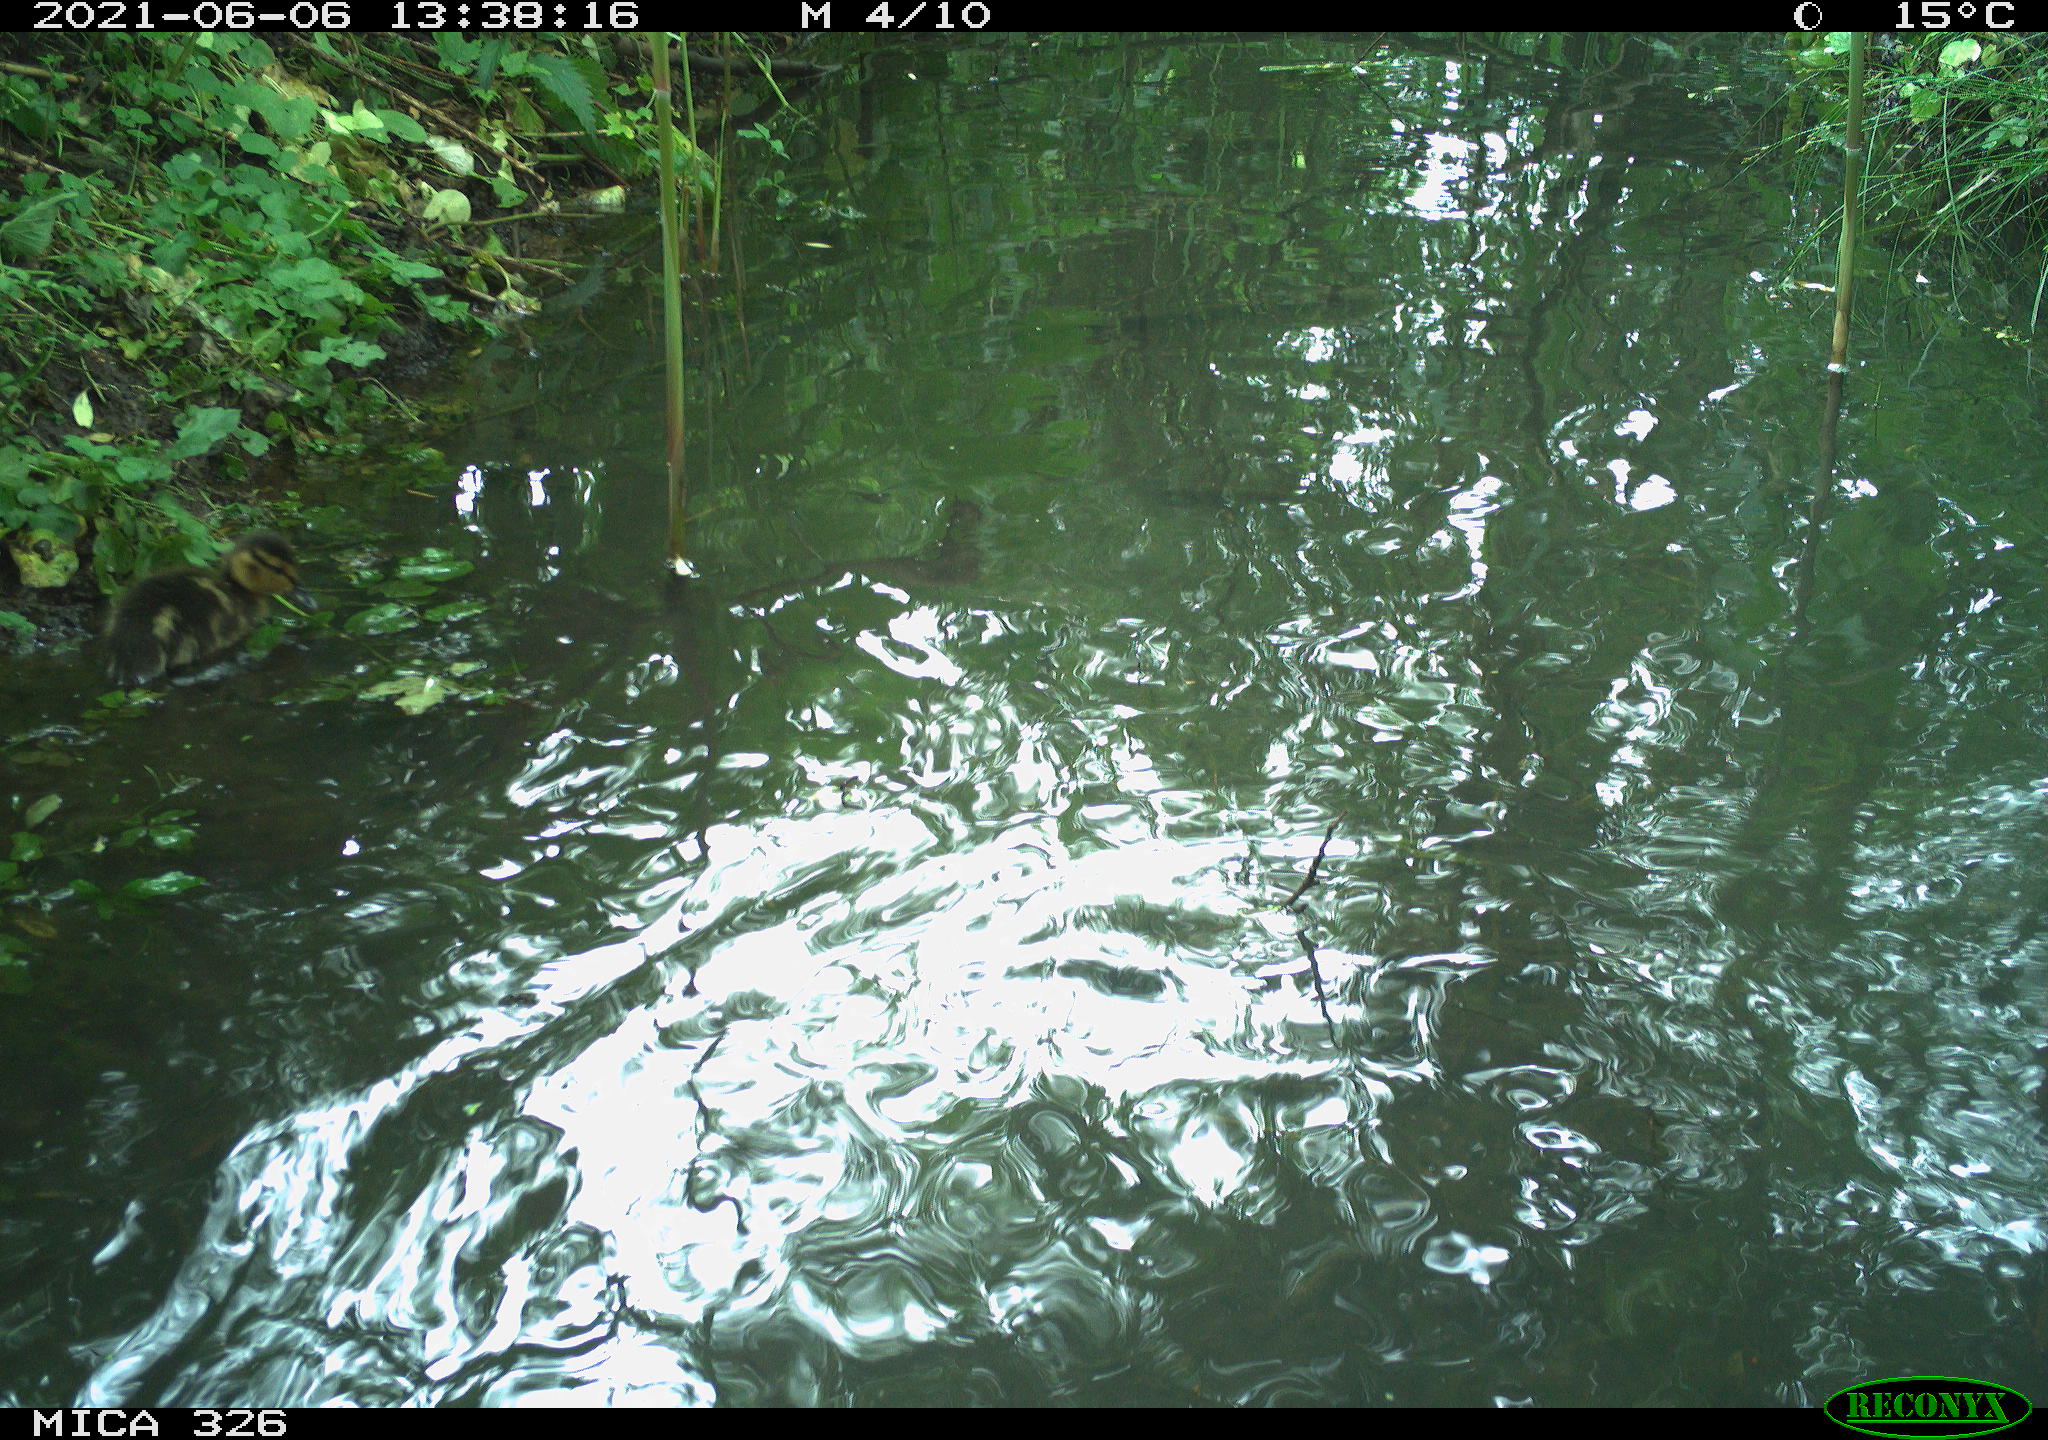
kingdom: Animalia
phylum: Chordata
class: Aves
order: Anseriformes
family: Anatidae
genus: Anas
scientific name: Anas platyrhynchos
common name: Mallard
